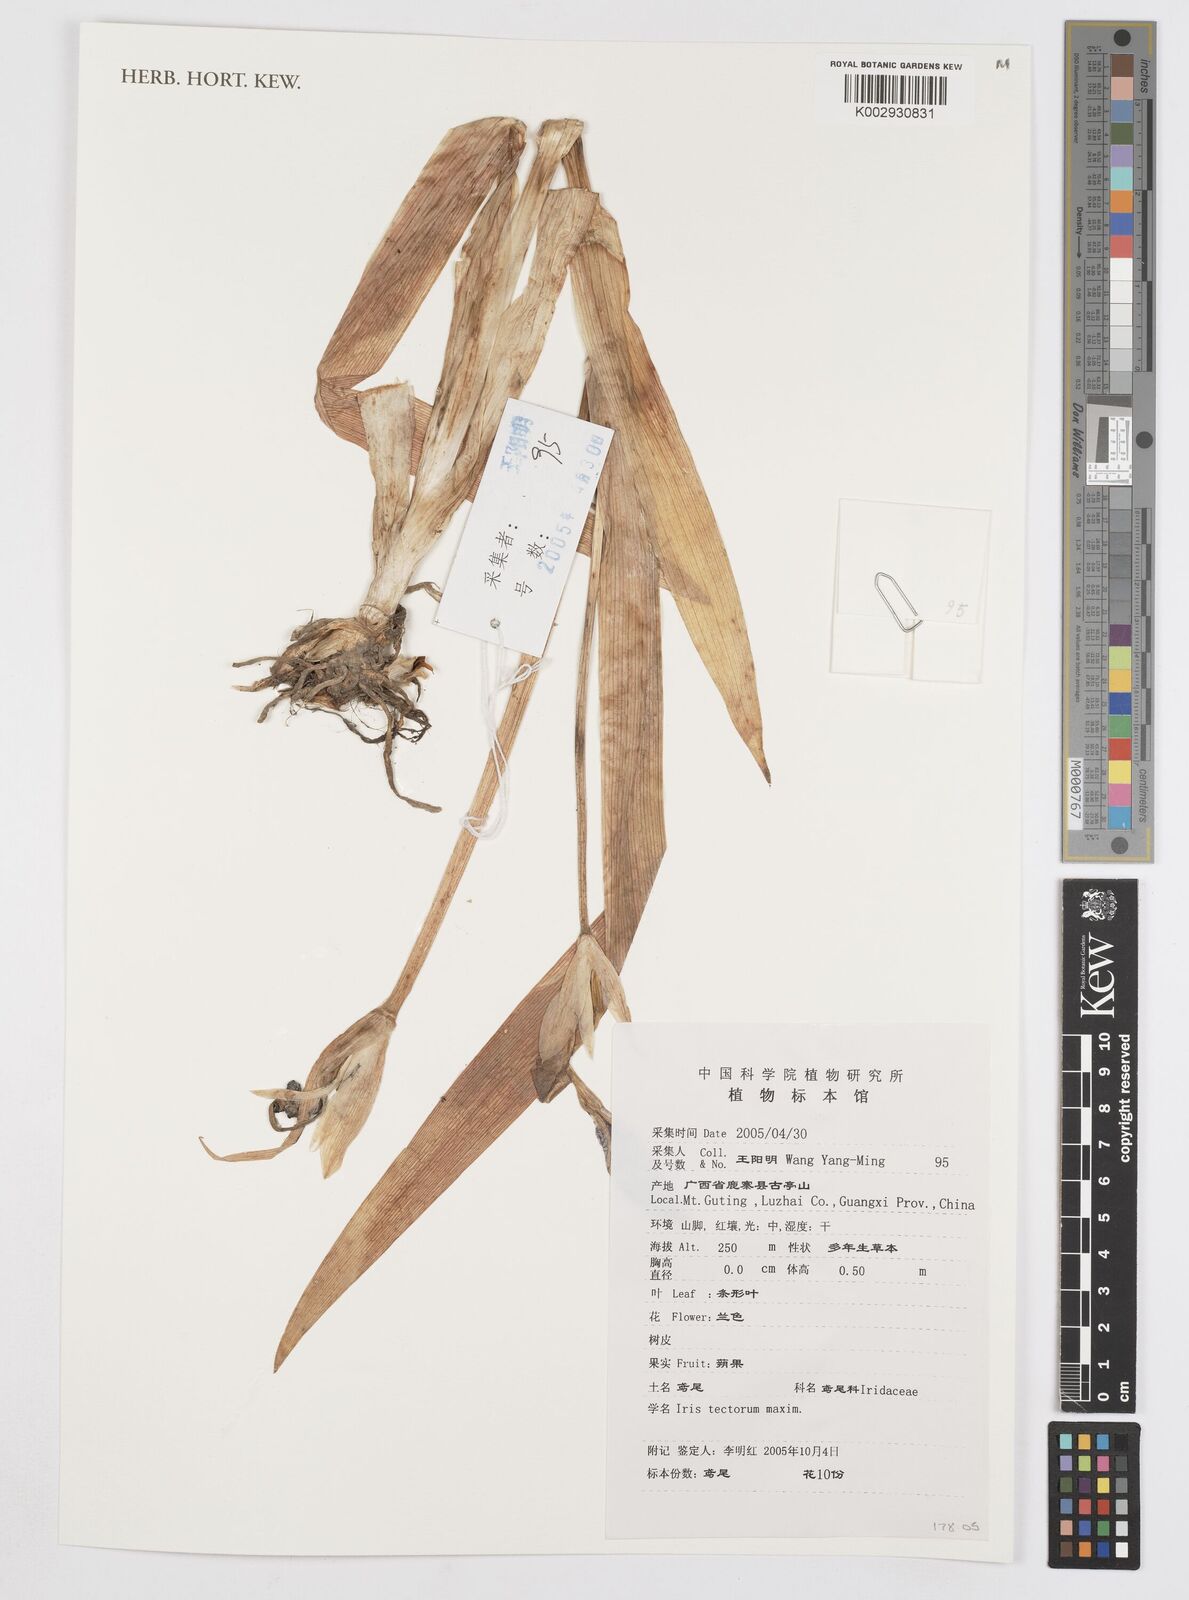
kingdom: Plantae
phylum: Tracheophyta
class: Liliopsida
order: Asparagales
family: Iridaceae
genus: Iris
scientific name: Iris tectorum
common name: Wall iris
